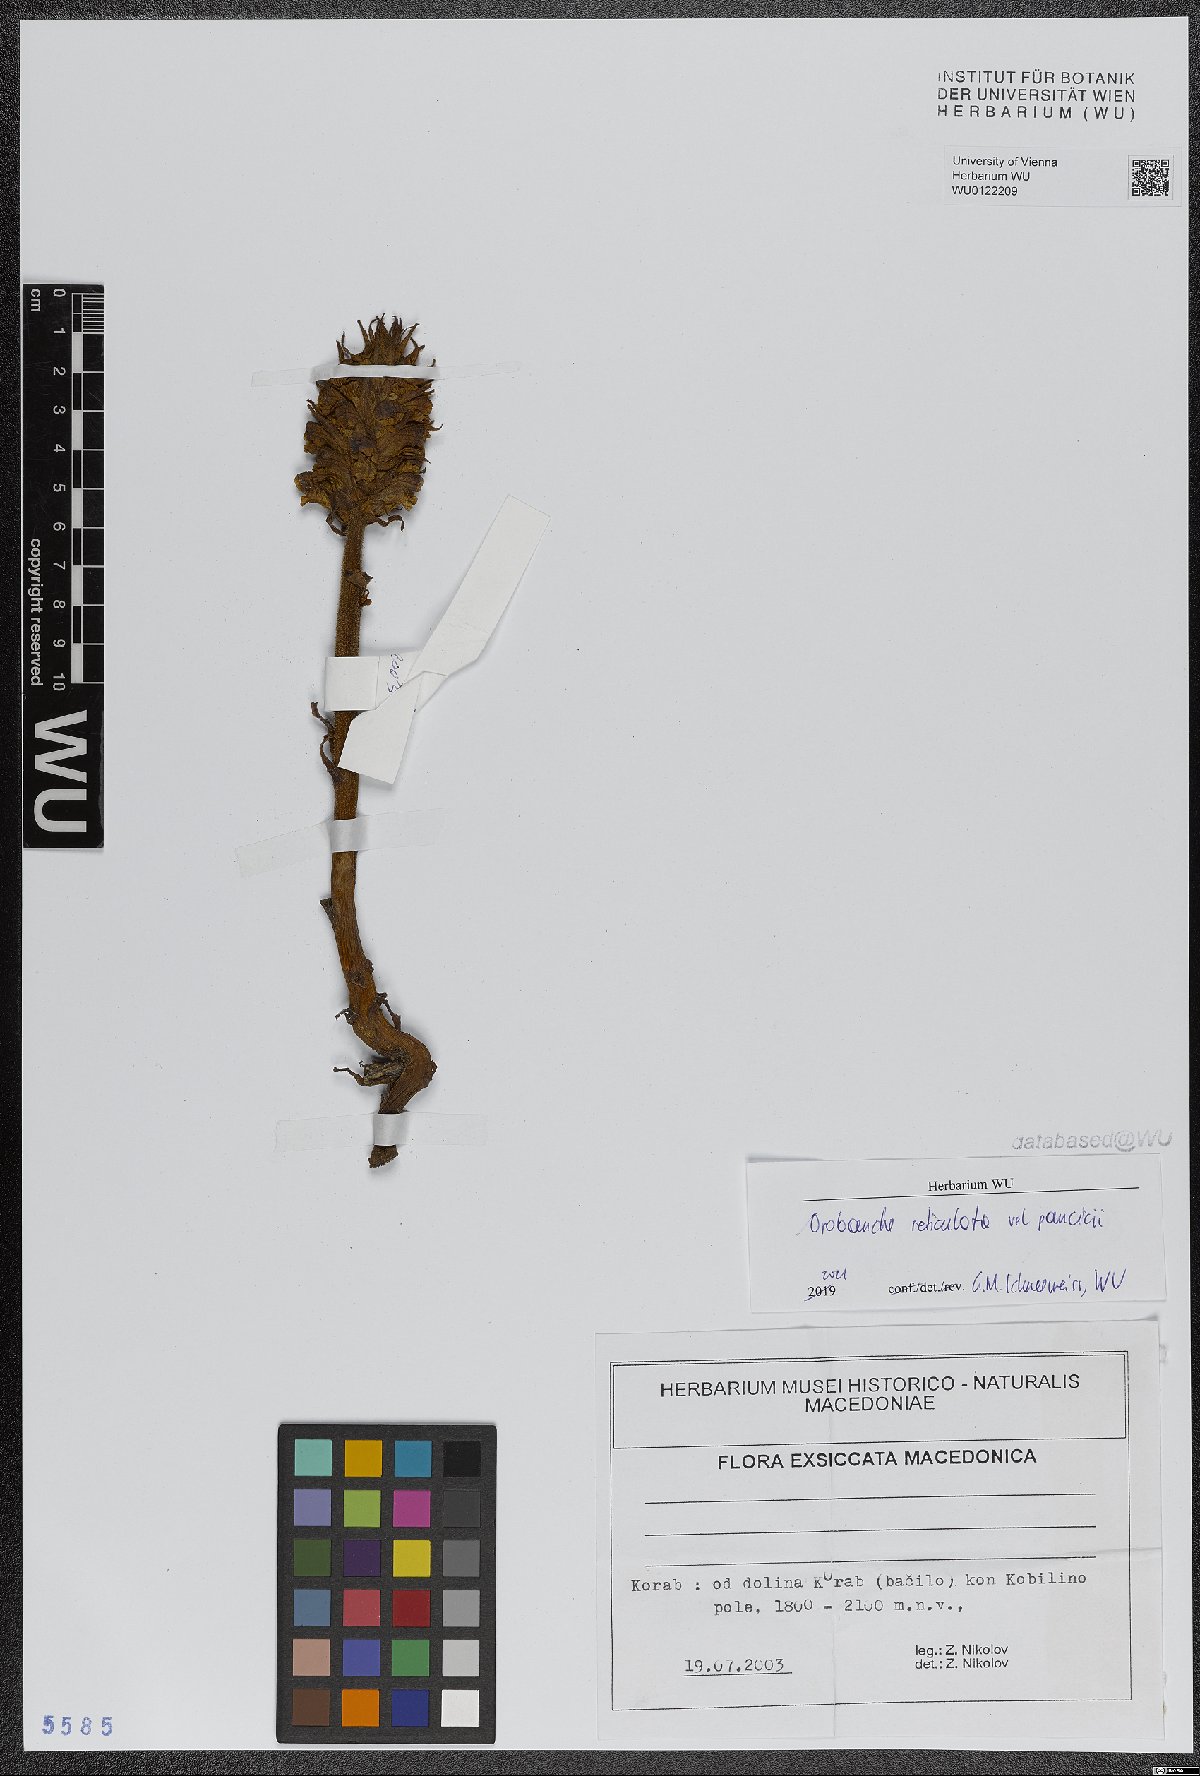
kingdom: Plantae
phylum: Tracheophyta
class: Magnoliopsida
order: Lamiales
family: Orobanchaceae
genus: Orobanche
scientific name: Orobanche reticulata
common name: Thistle broomrape
